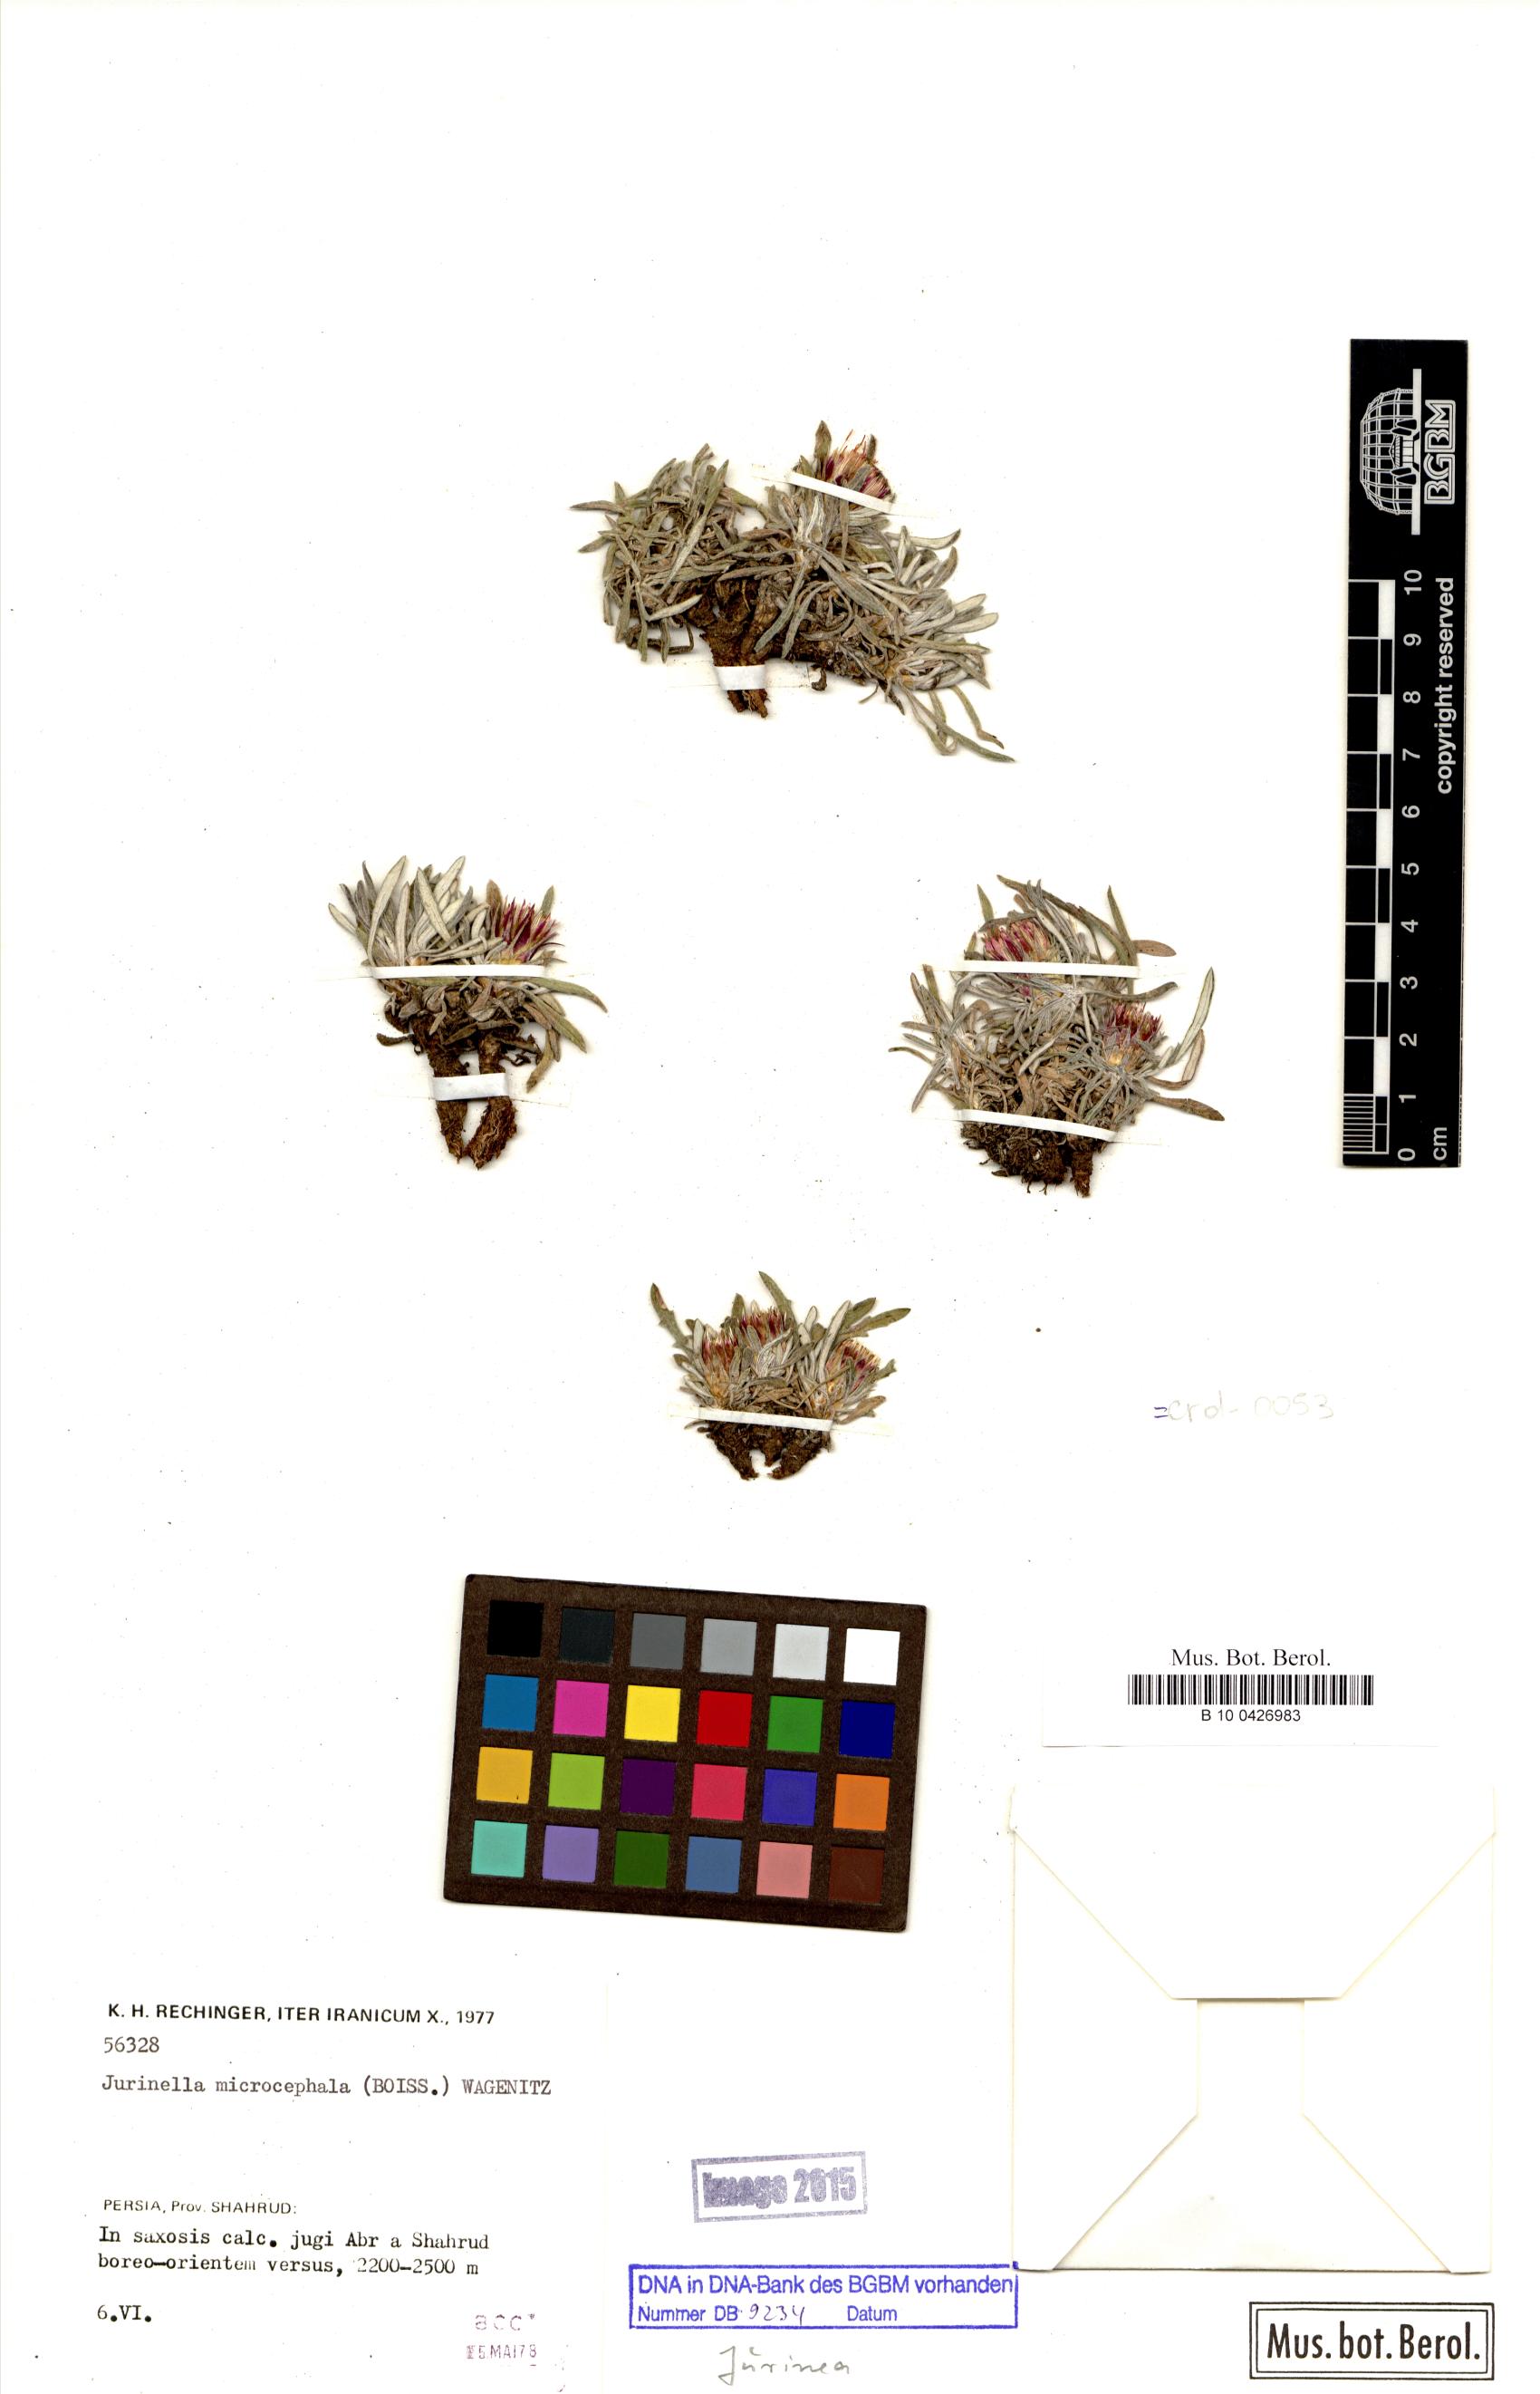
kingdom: Plantae
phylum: Tracheophyta
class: Magnoliopsida
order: Asterales
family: Asteraceae
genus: Jurinea
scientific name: Jurinea microcephala
